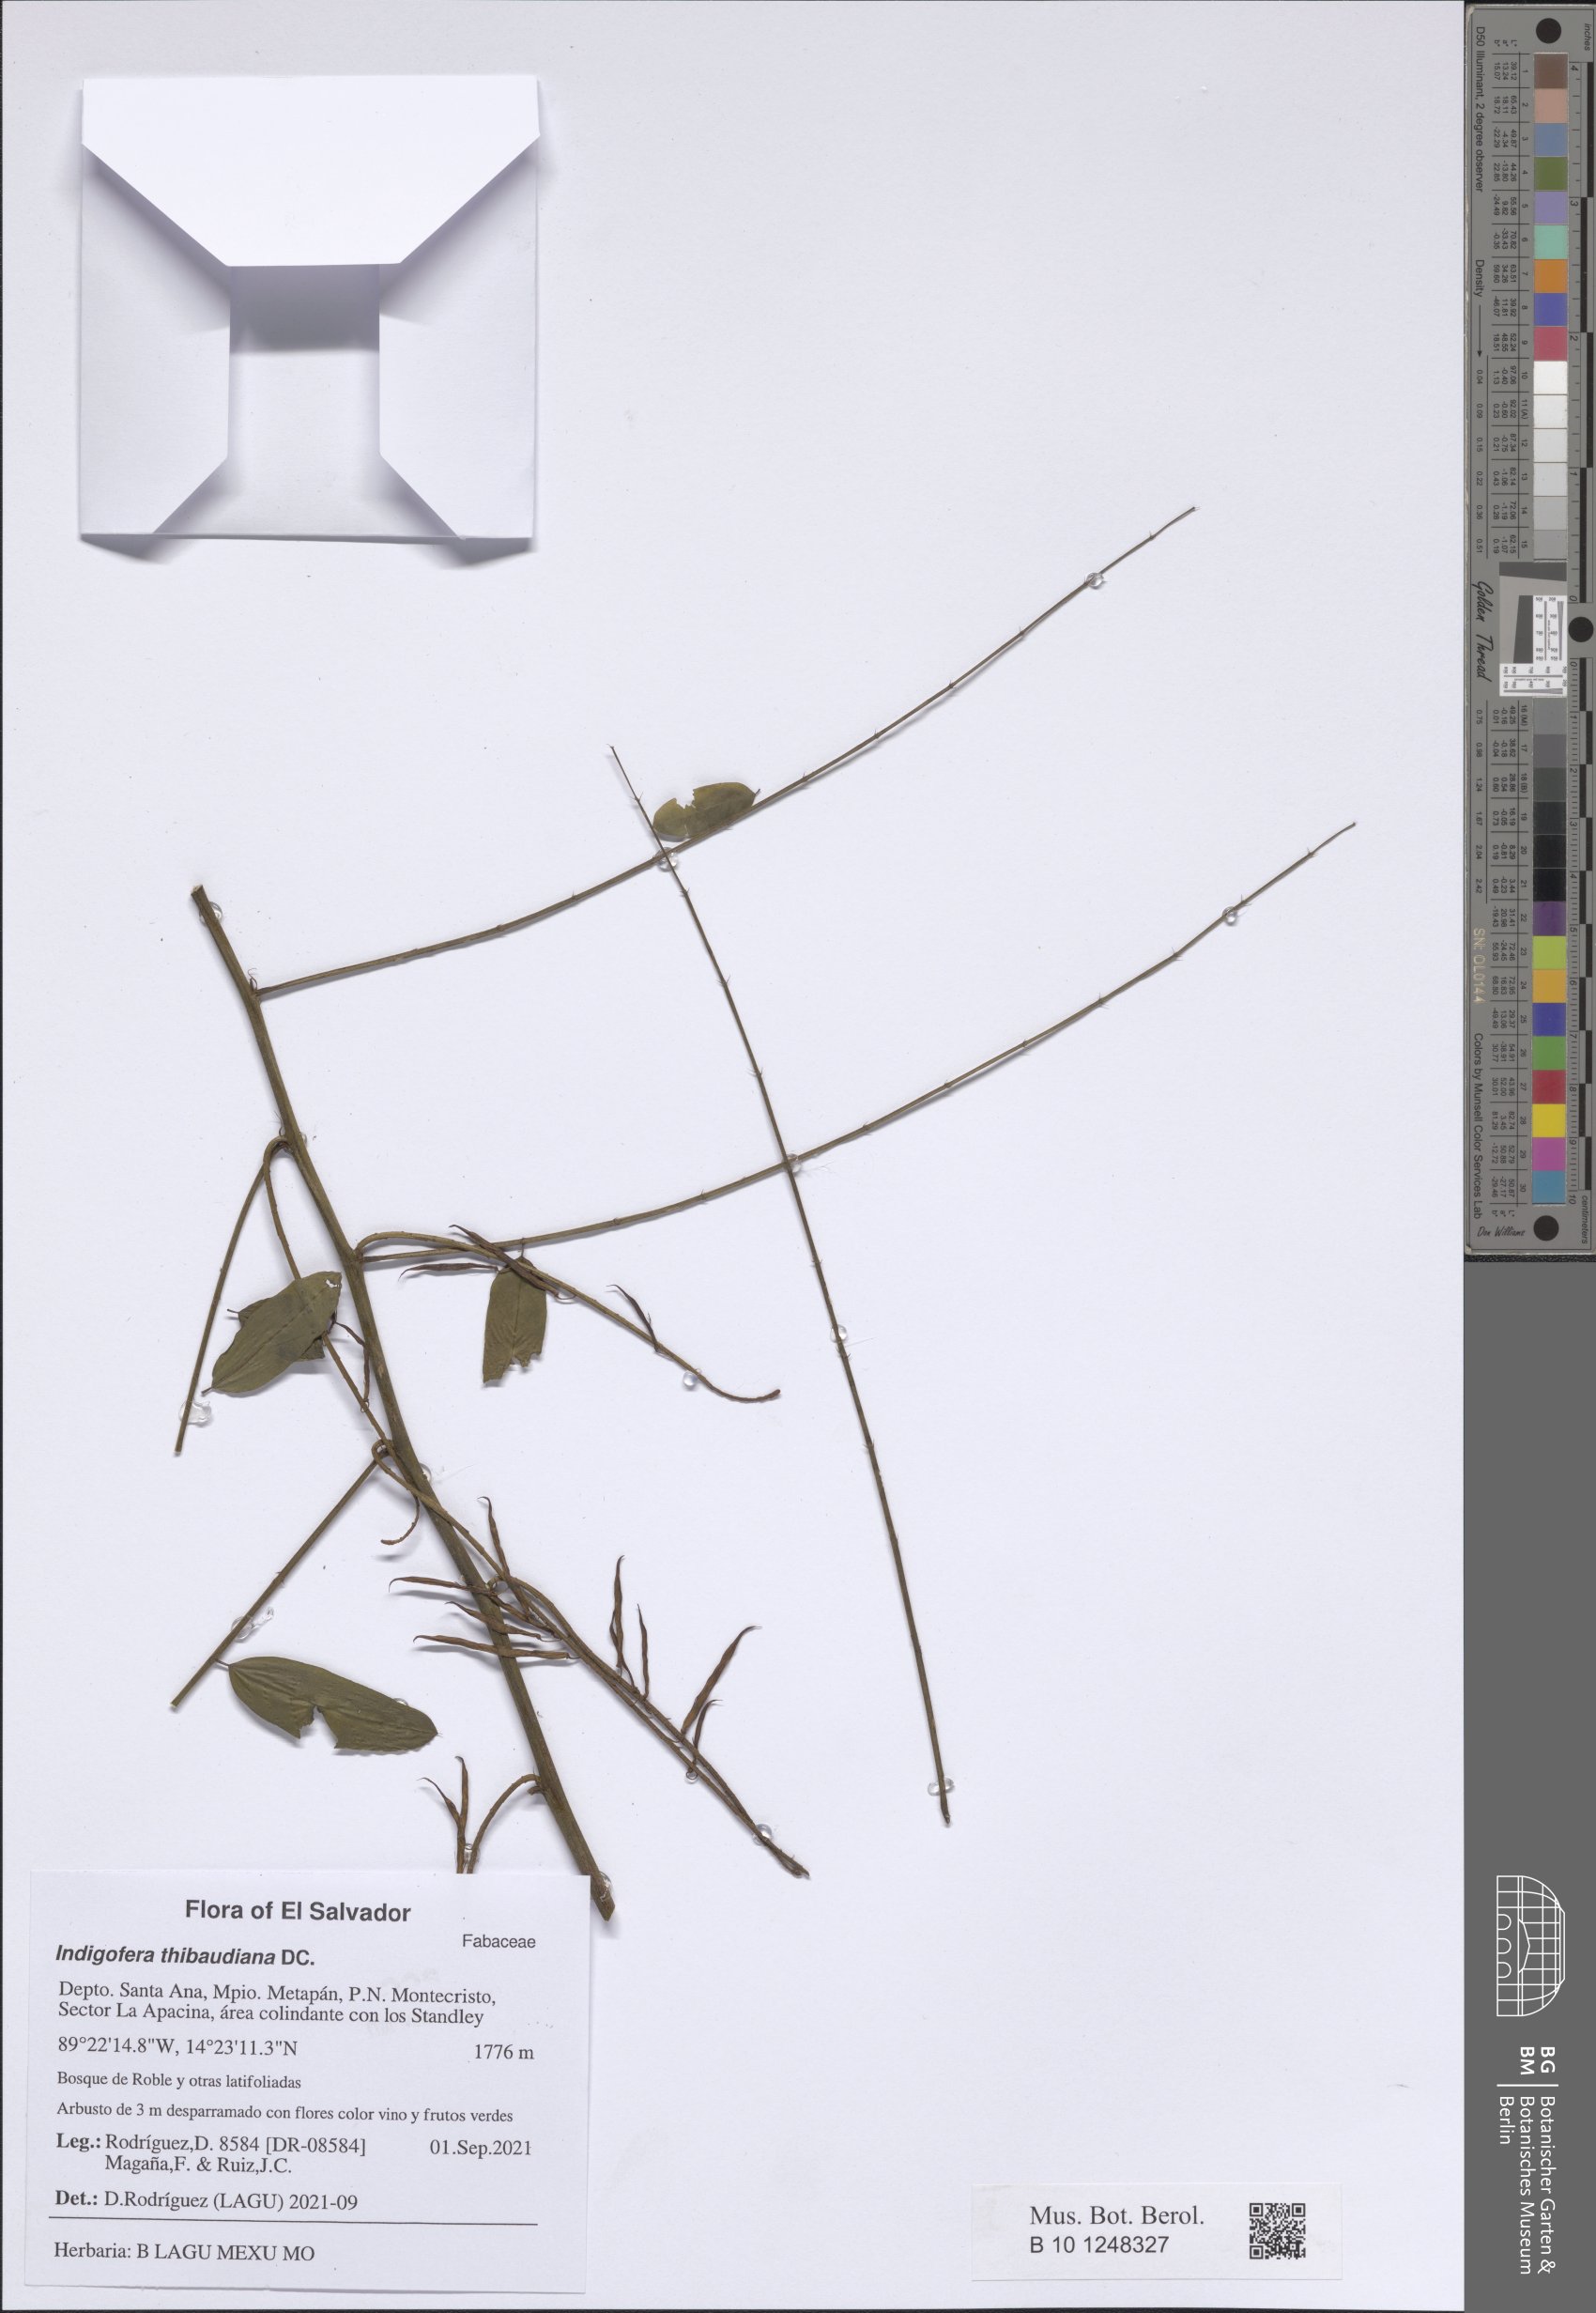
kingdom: Plantae
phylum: Tracheophyta
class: Magnoliopsida
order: Fabales
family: Fabaceae
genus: Indigofera
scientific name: Indigofera thibaudiana
